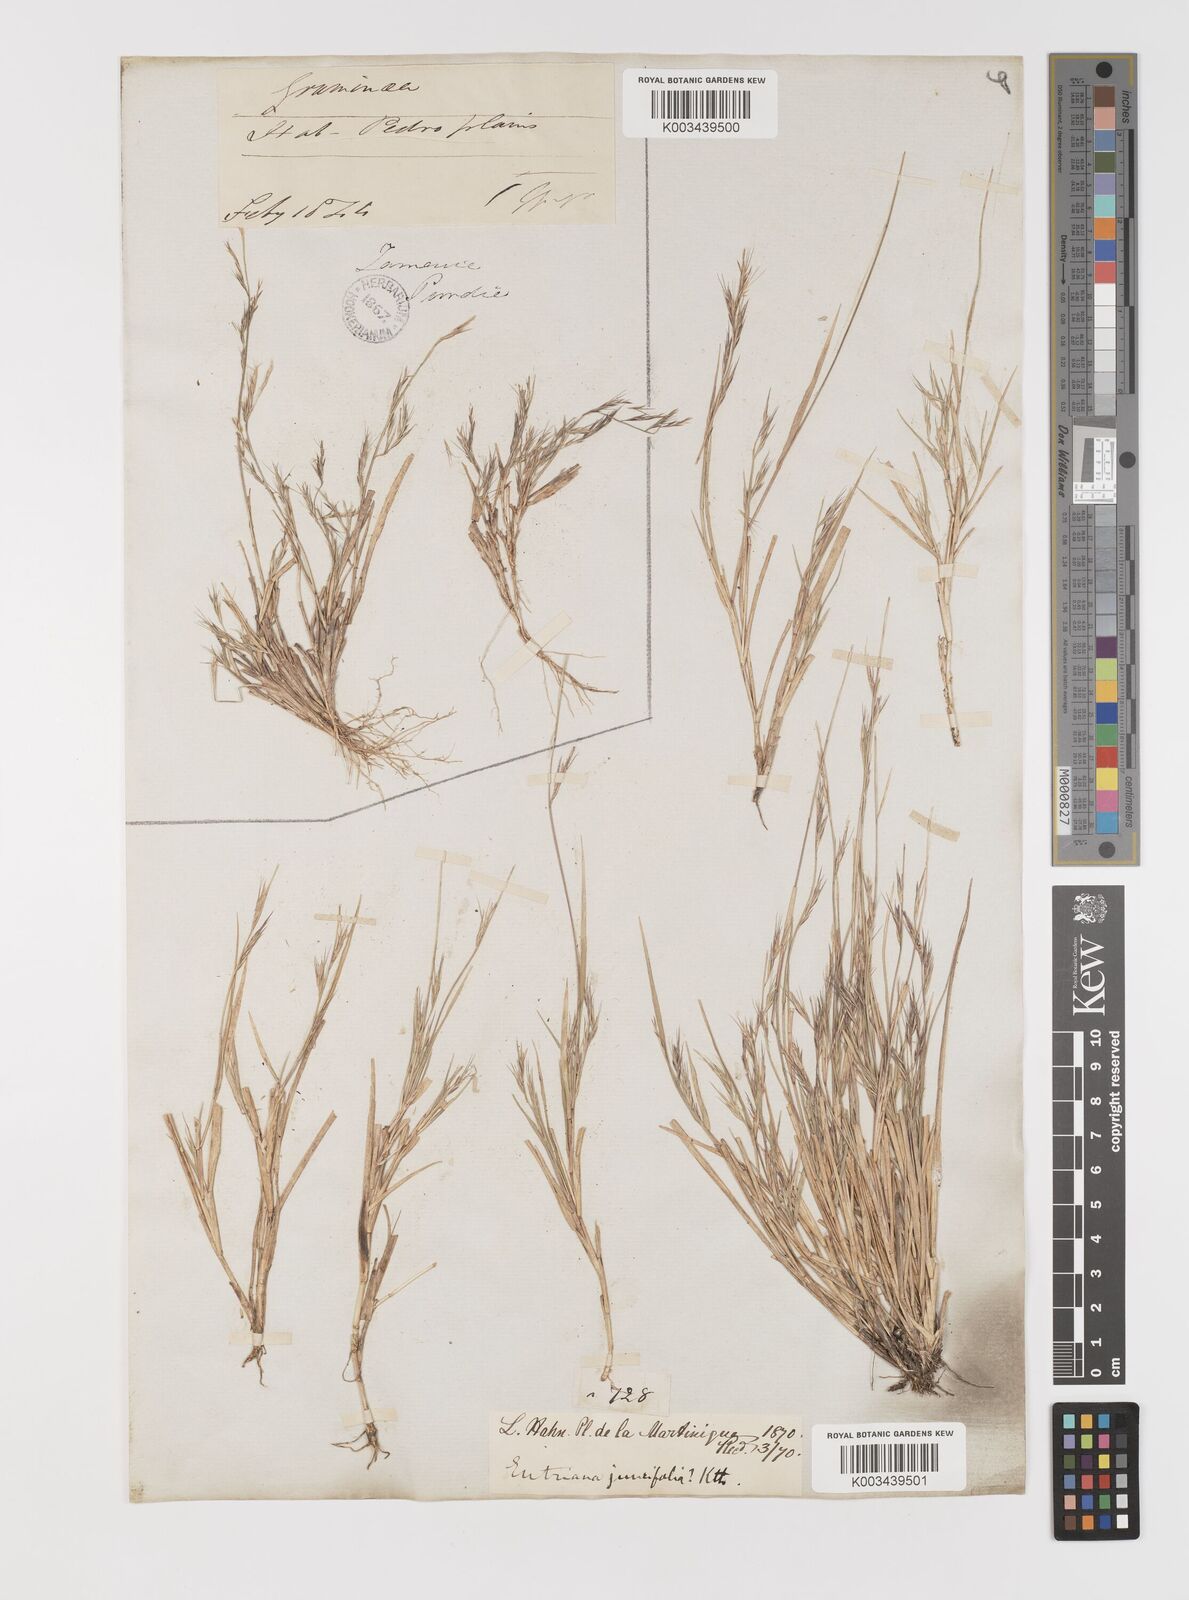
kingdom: Plantae
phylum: Tracheophyta
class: Liliopsida
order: Poales
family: Poaceae
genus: Bouteloua
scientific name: Bouteloua americana
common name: Mule grass
